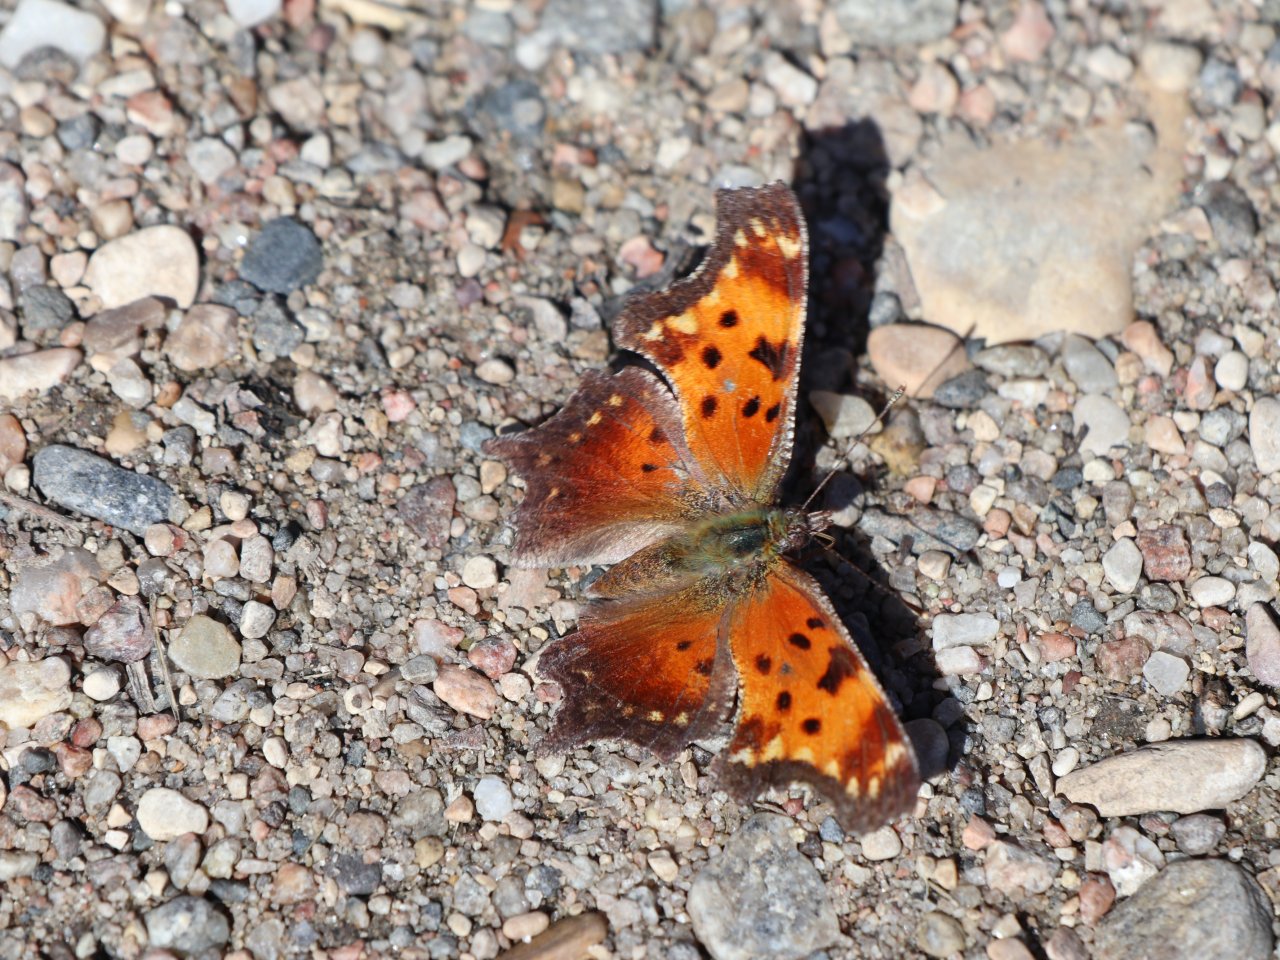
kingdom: Animalia
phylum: Arthropoda
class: Insecta
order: Lepidoptera
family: Nymphalidae
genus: Polygonia
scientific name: Polygonia gracilis
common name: Hoary Comma
